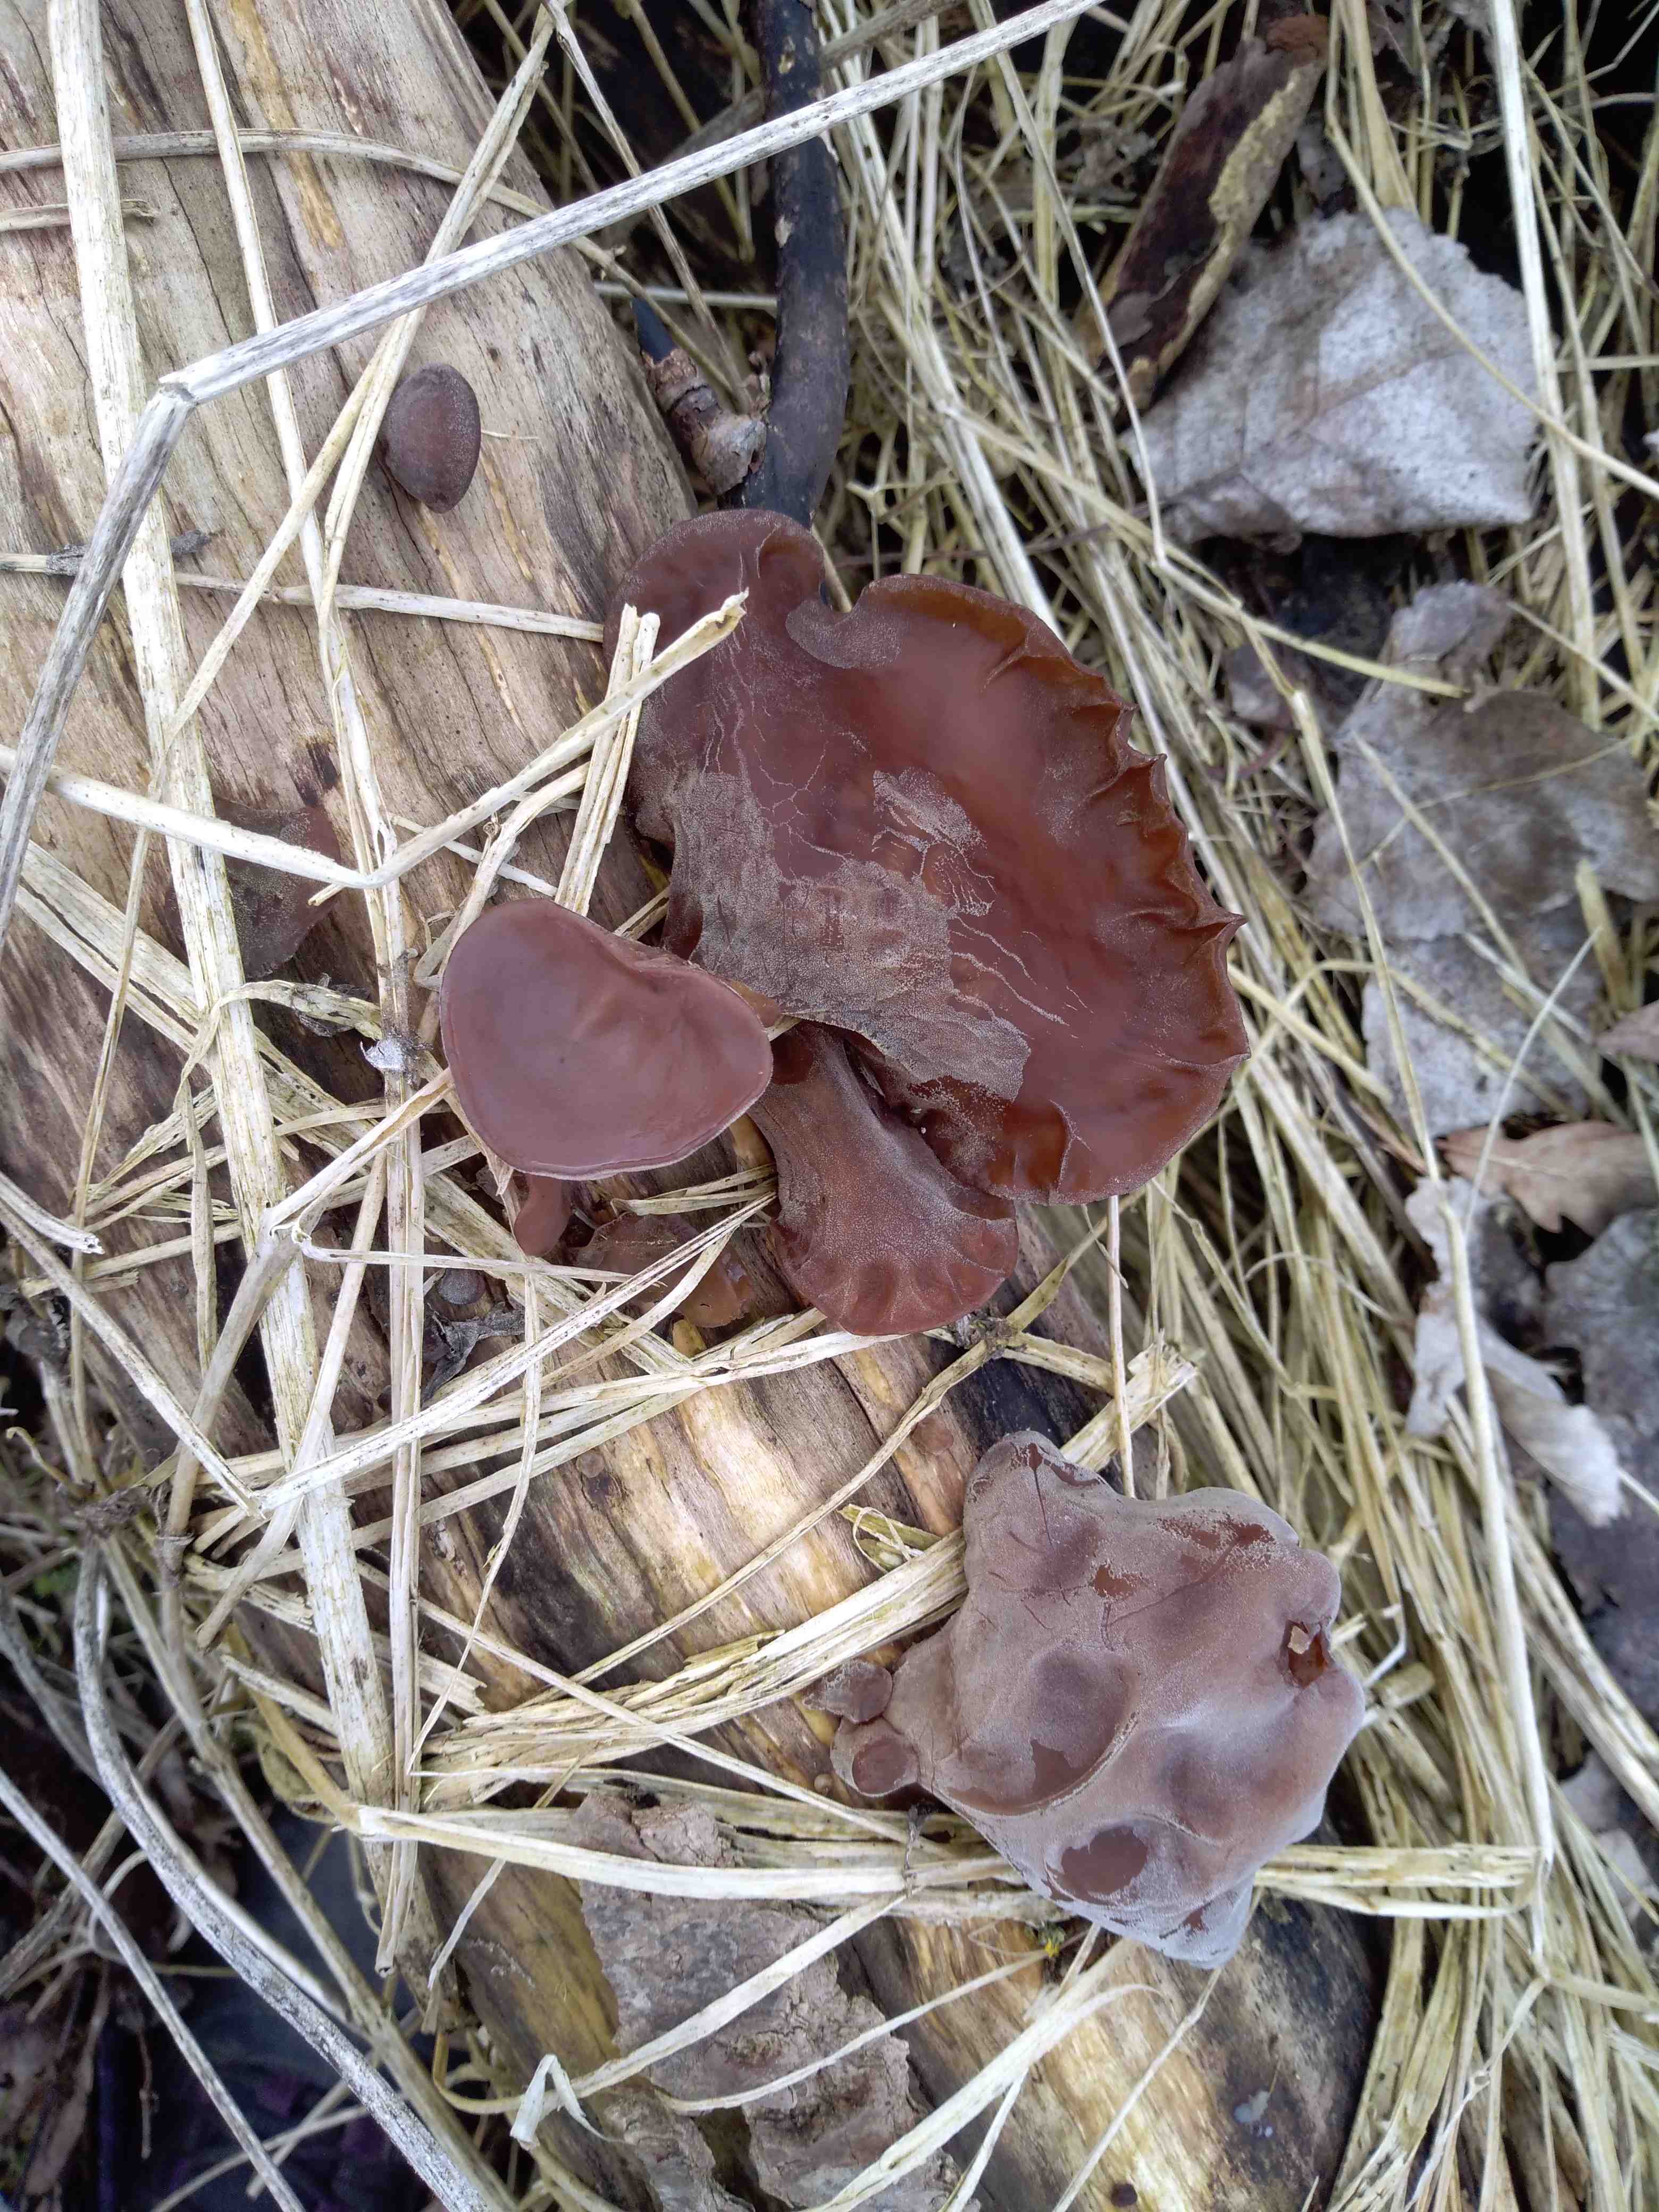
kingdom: Fungi
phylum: Basidiomycota
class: Agaricomycetes
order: Auriculariales
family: Auriculariaceae
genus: Auricularia
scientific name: Auricularia auricula-judae
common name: almindelig judasøre
